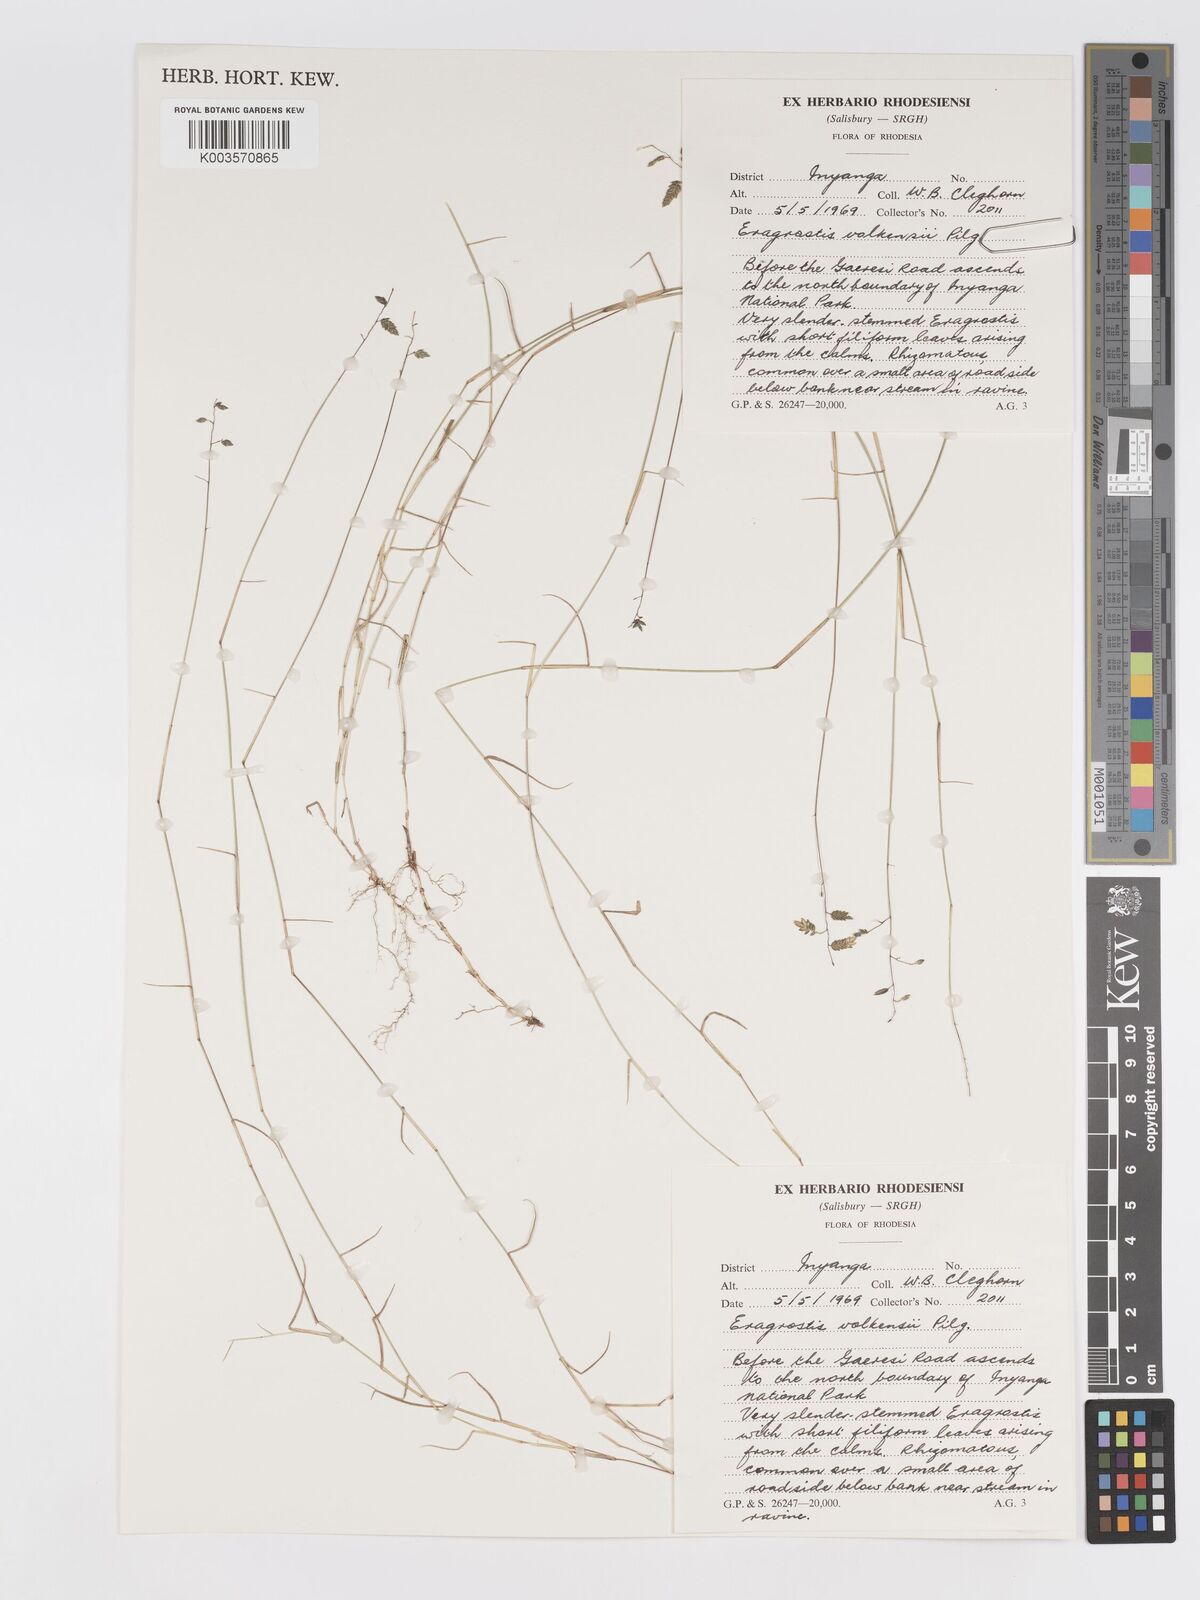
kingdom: Plantae
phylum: Tracheophyta
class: Liliopsida
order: Poales
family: Poaceae
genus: Eragrostis
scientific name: Eragrostis volkensii
